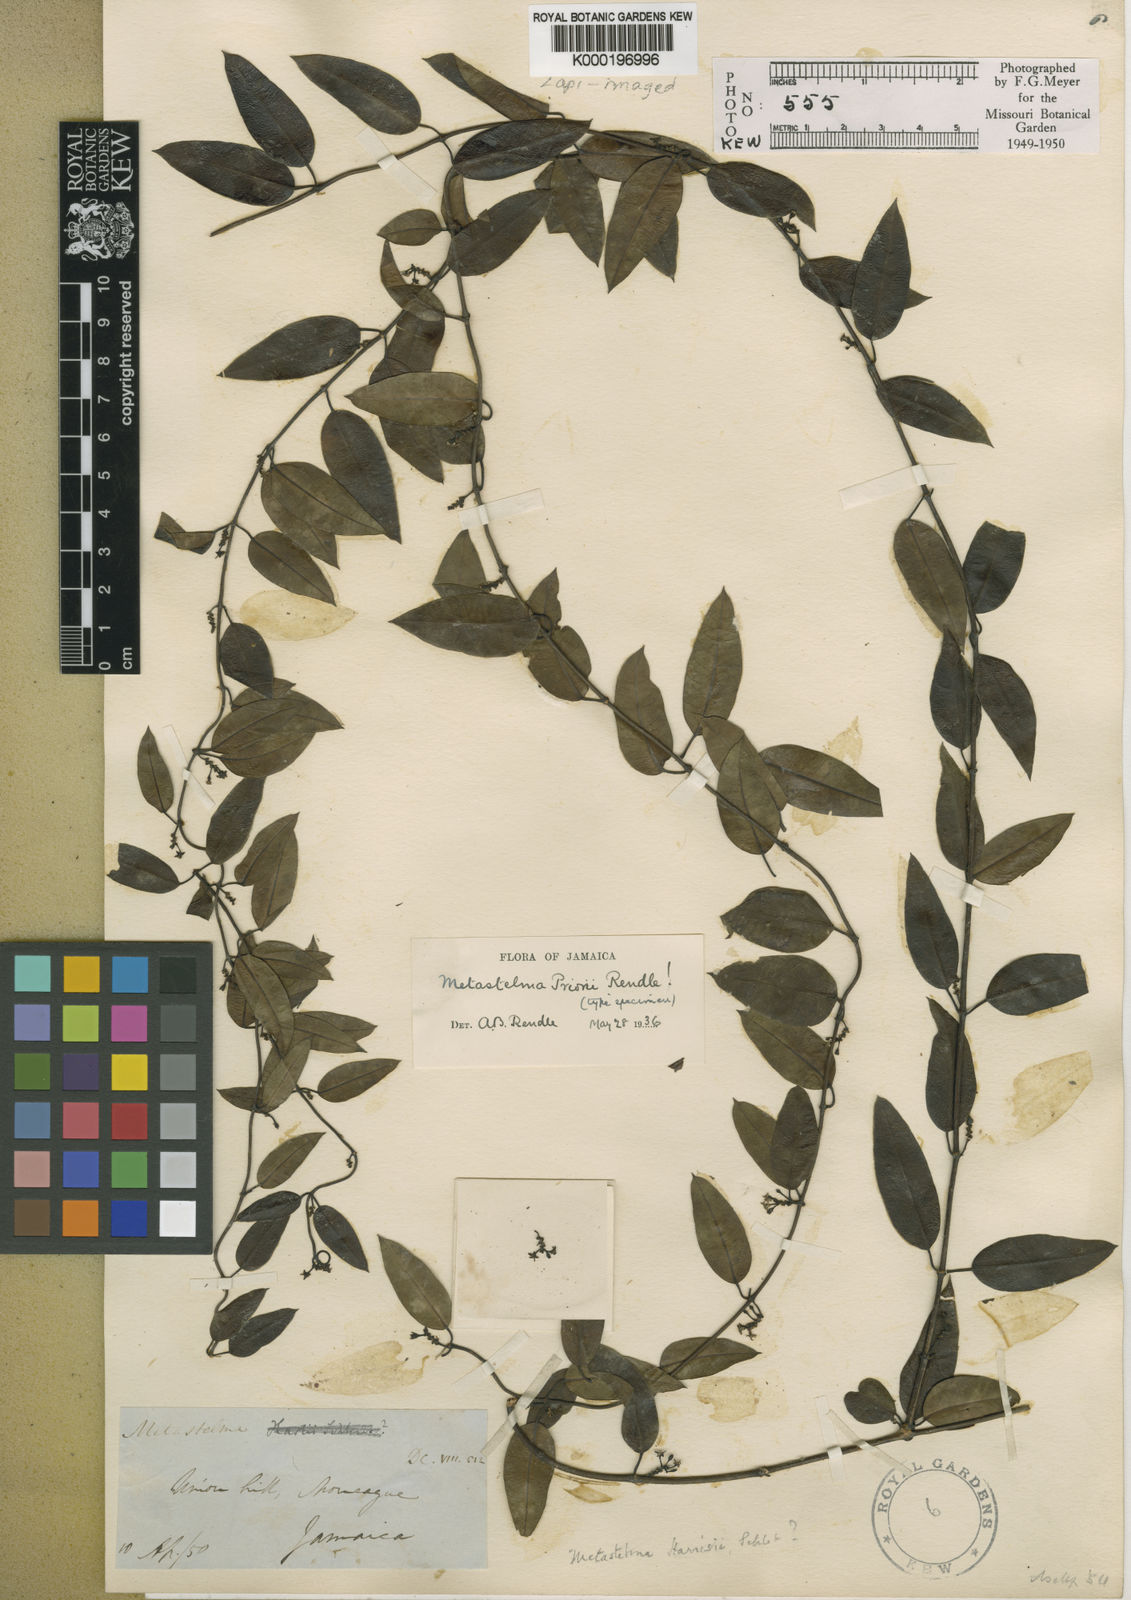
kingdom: Plantae
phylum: Tracheophyta
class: Magnoliopsida
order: Gentianales
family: Apocynaceae
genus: Metastelma
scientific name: Metastelma priorii
